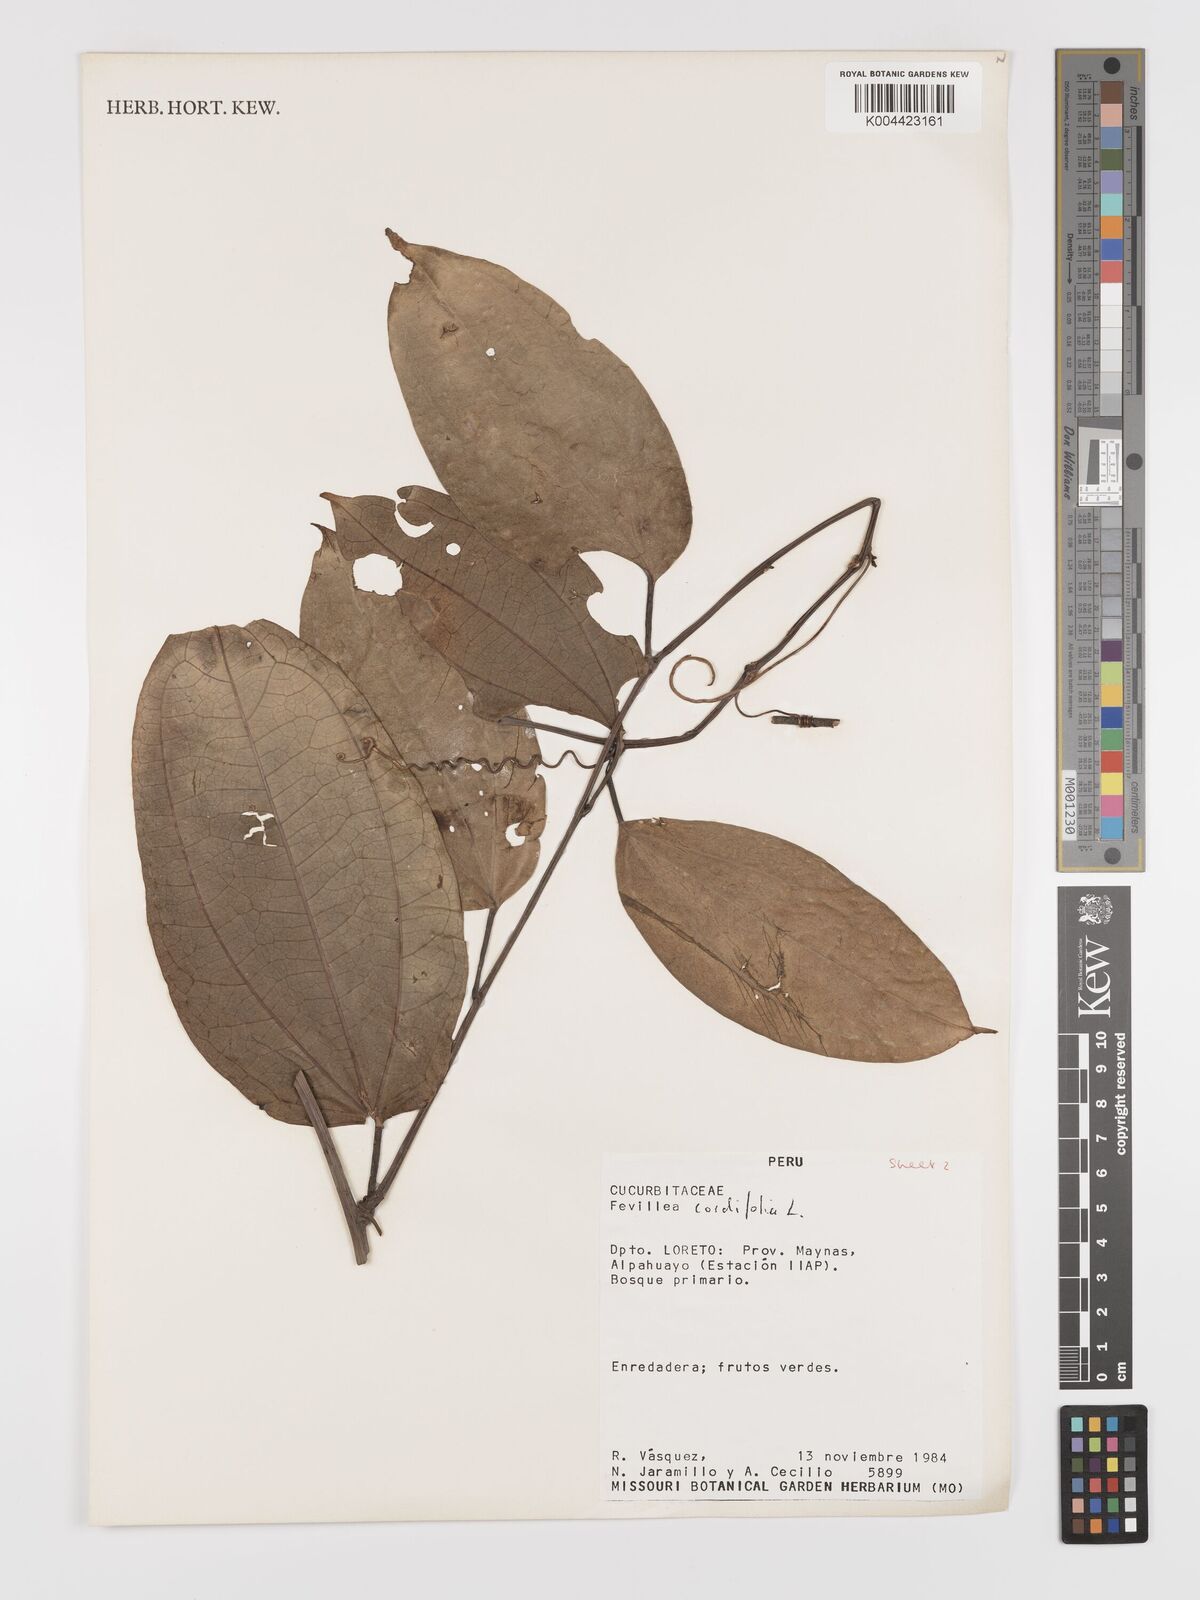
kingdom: Plantae
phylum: Tracheophyta
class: Magnoliopsida
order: Cucurbitales
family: Cucurbitaceae
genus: Fevillea
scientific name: Fevillea
